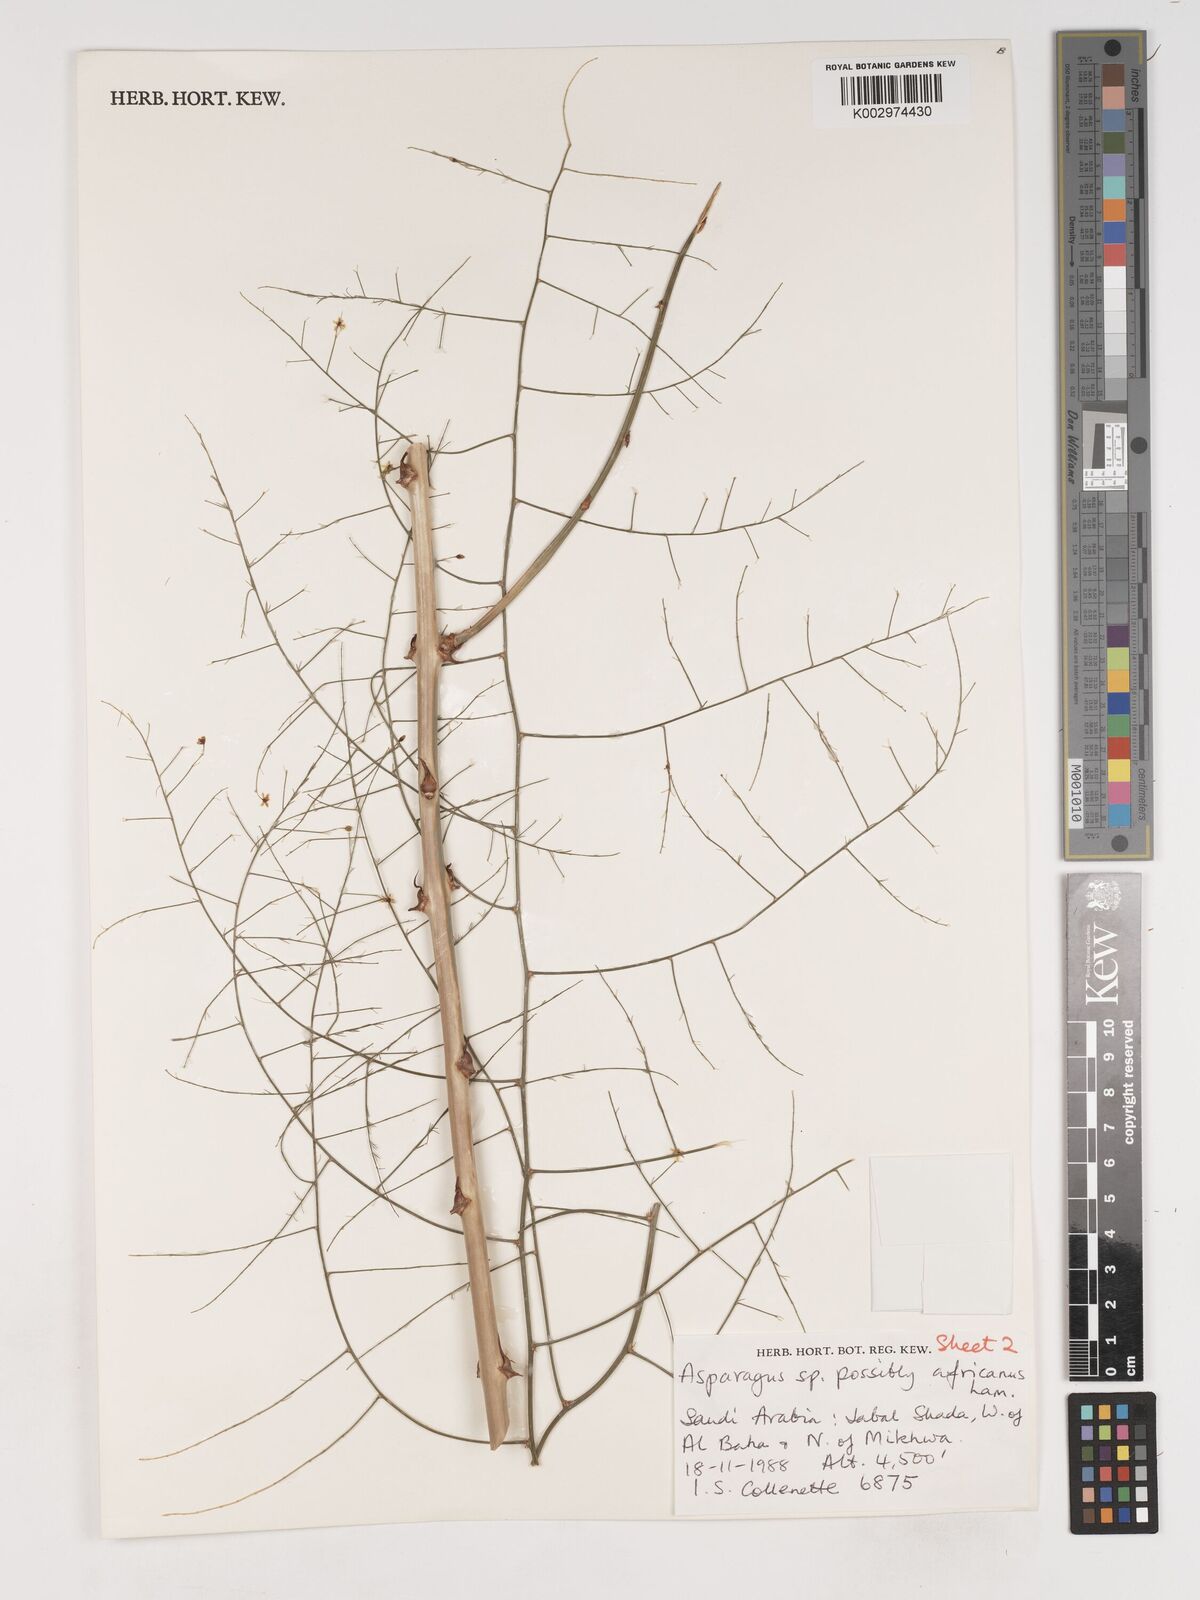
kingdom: Plantae
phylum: Tracheophyta
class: Liliopsida
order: Asparagales
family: Asparagaceae
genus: Asparagus
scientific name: Asparagus africanus
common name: Asparagus-fern
